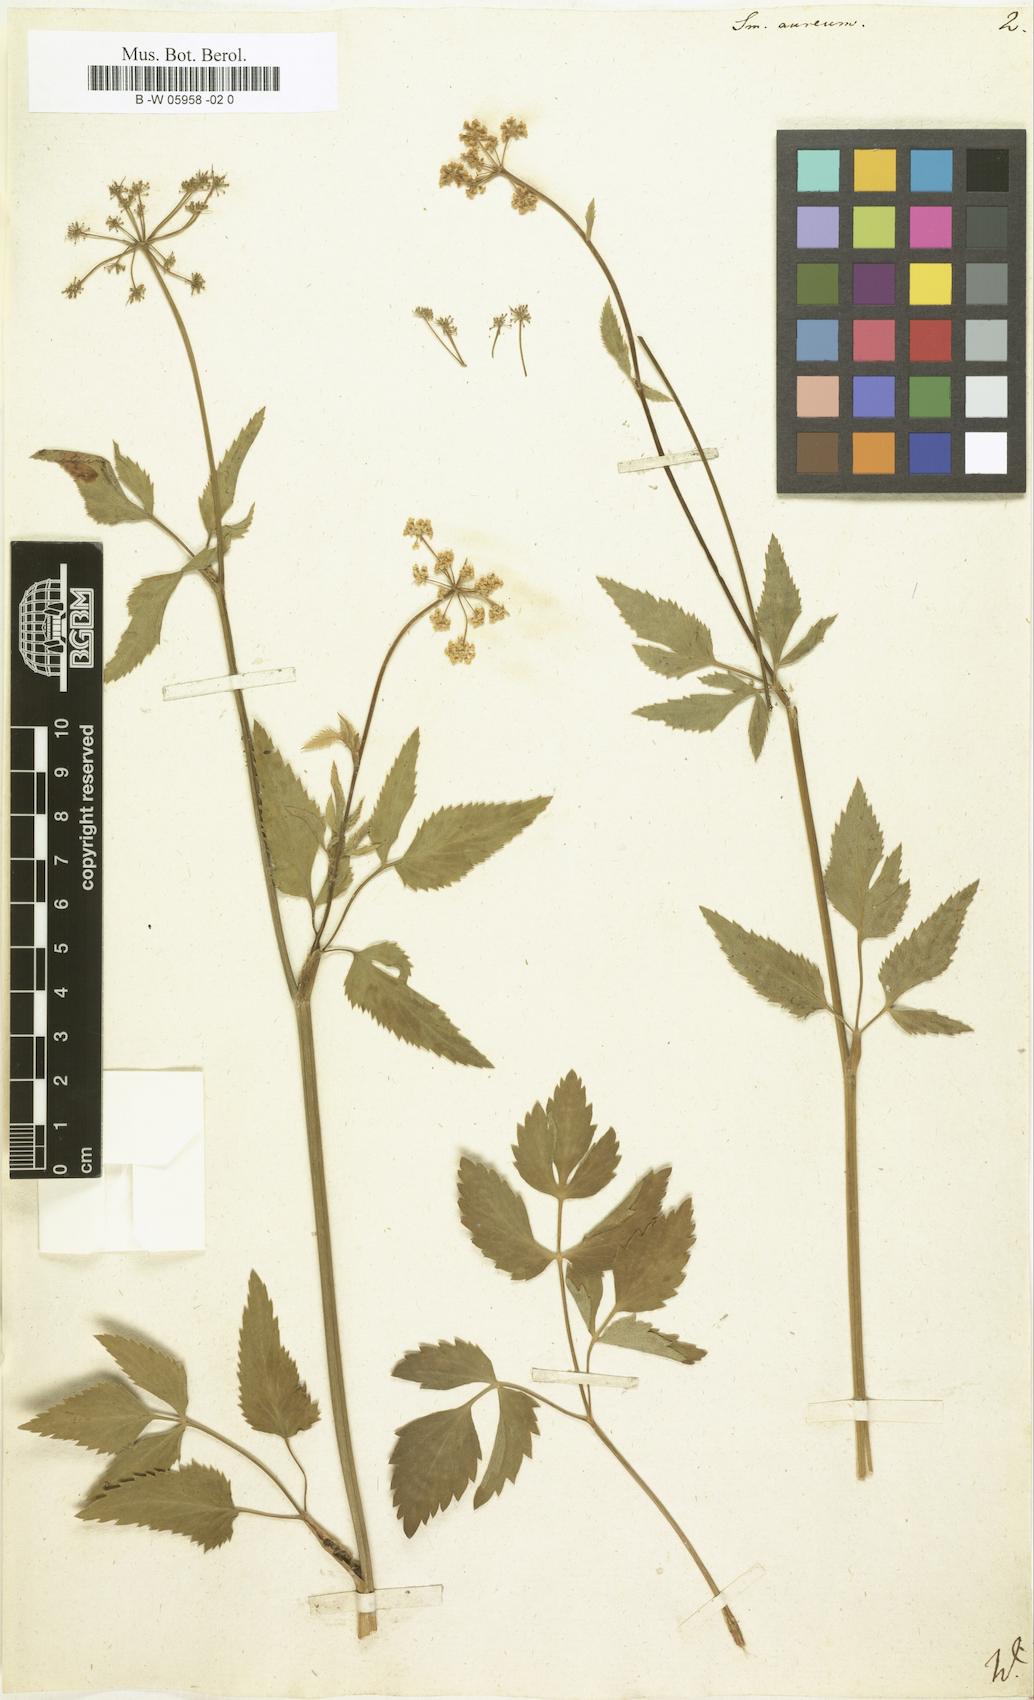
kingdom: Plantae
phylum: Tracheophyta
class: Magnoliopsida
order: Apiales
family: Apiaceae
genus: Zizia
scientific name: Zizia aurea
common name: Golden alexanders
